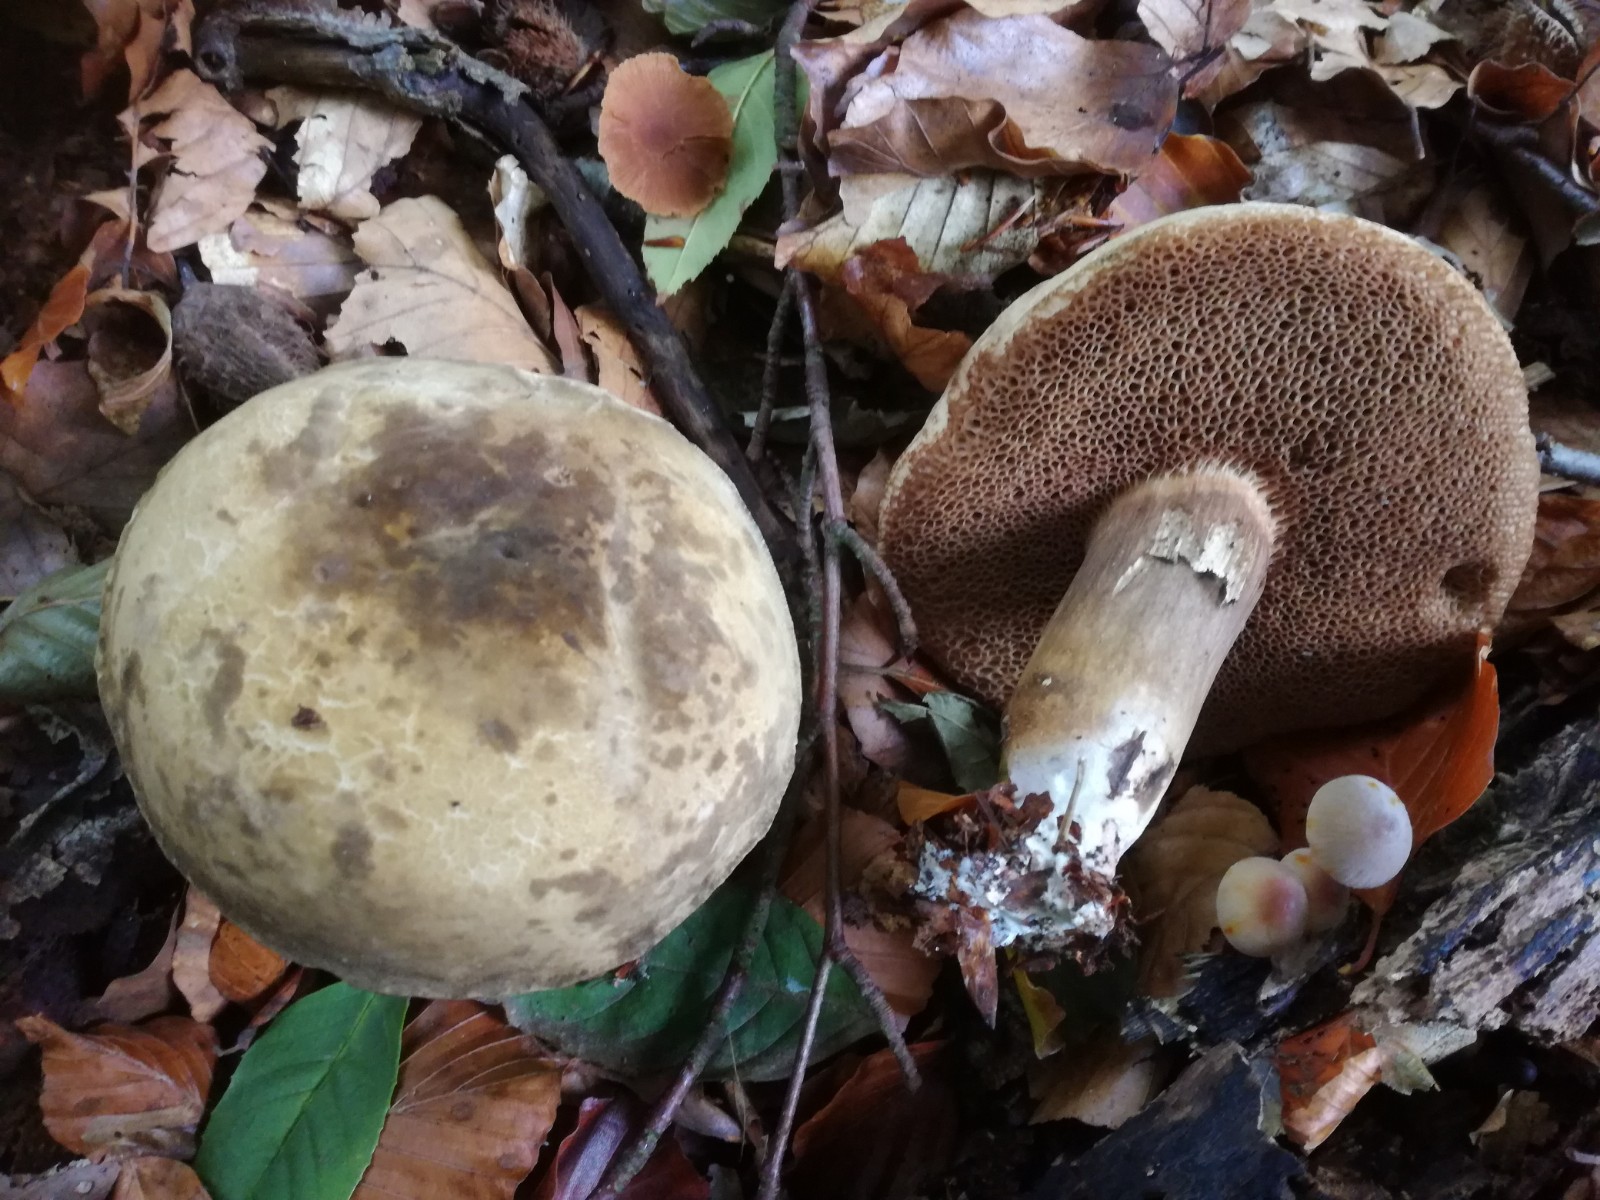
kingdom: Fungi
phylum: Basidiomycota
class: Agaricomycetes
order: Boletales
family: Boletaceae
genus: Porphyrellus
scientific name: Porphyrellus porphyrosporus
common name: sodrørhat
